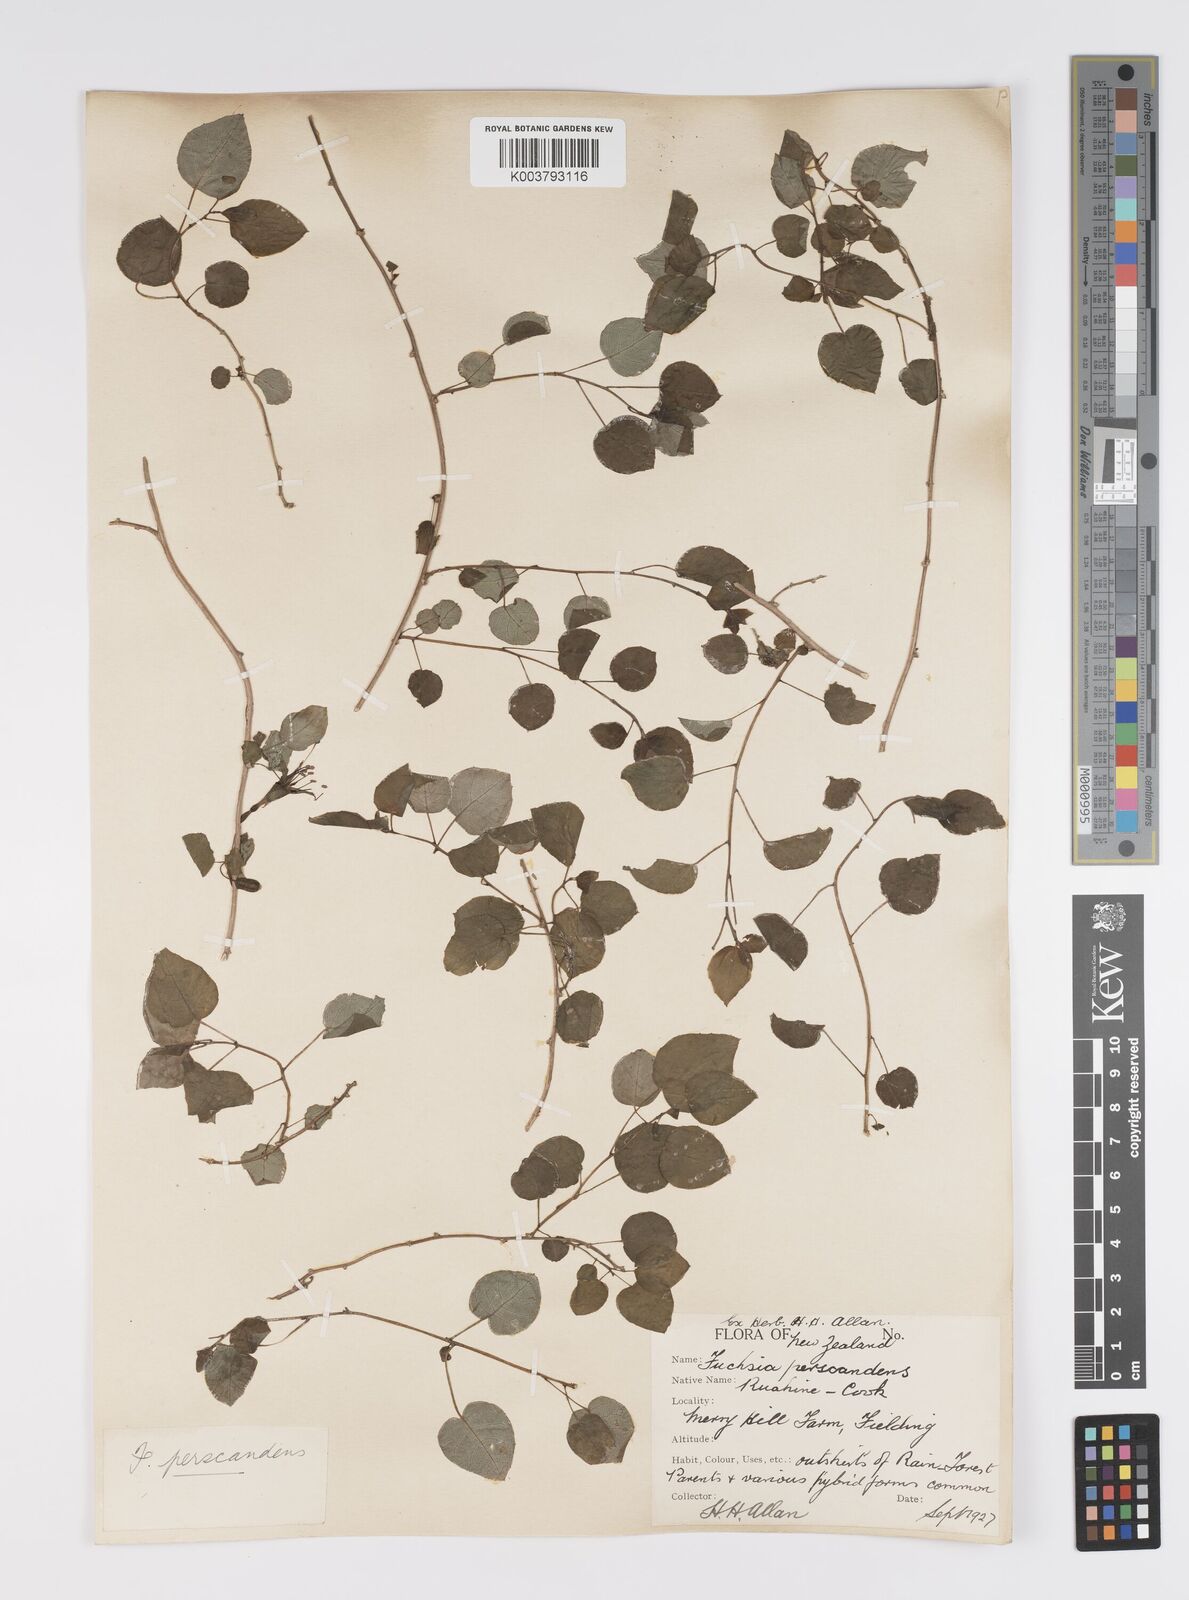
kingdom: Plantae
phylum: Tracheophyta
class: Magnoliopsida
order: Myrtales
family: Onagraceae
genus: Fuchsia
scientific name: Fuchsia
